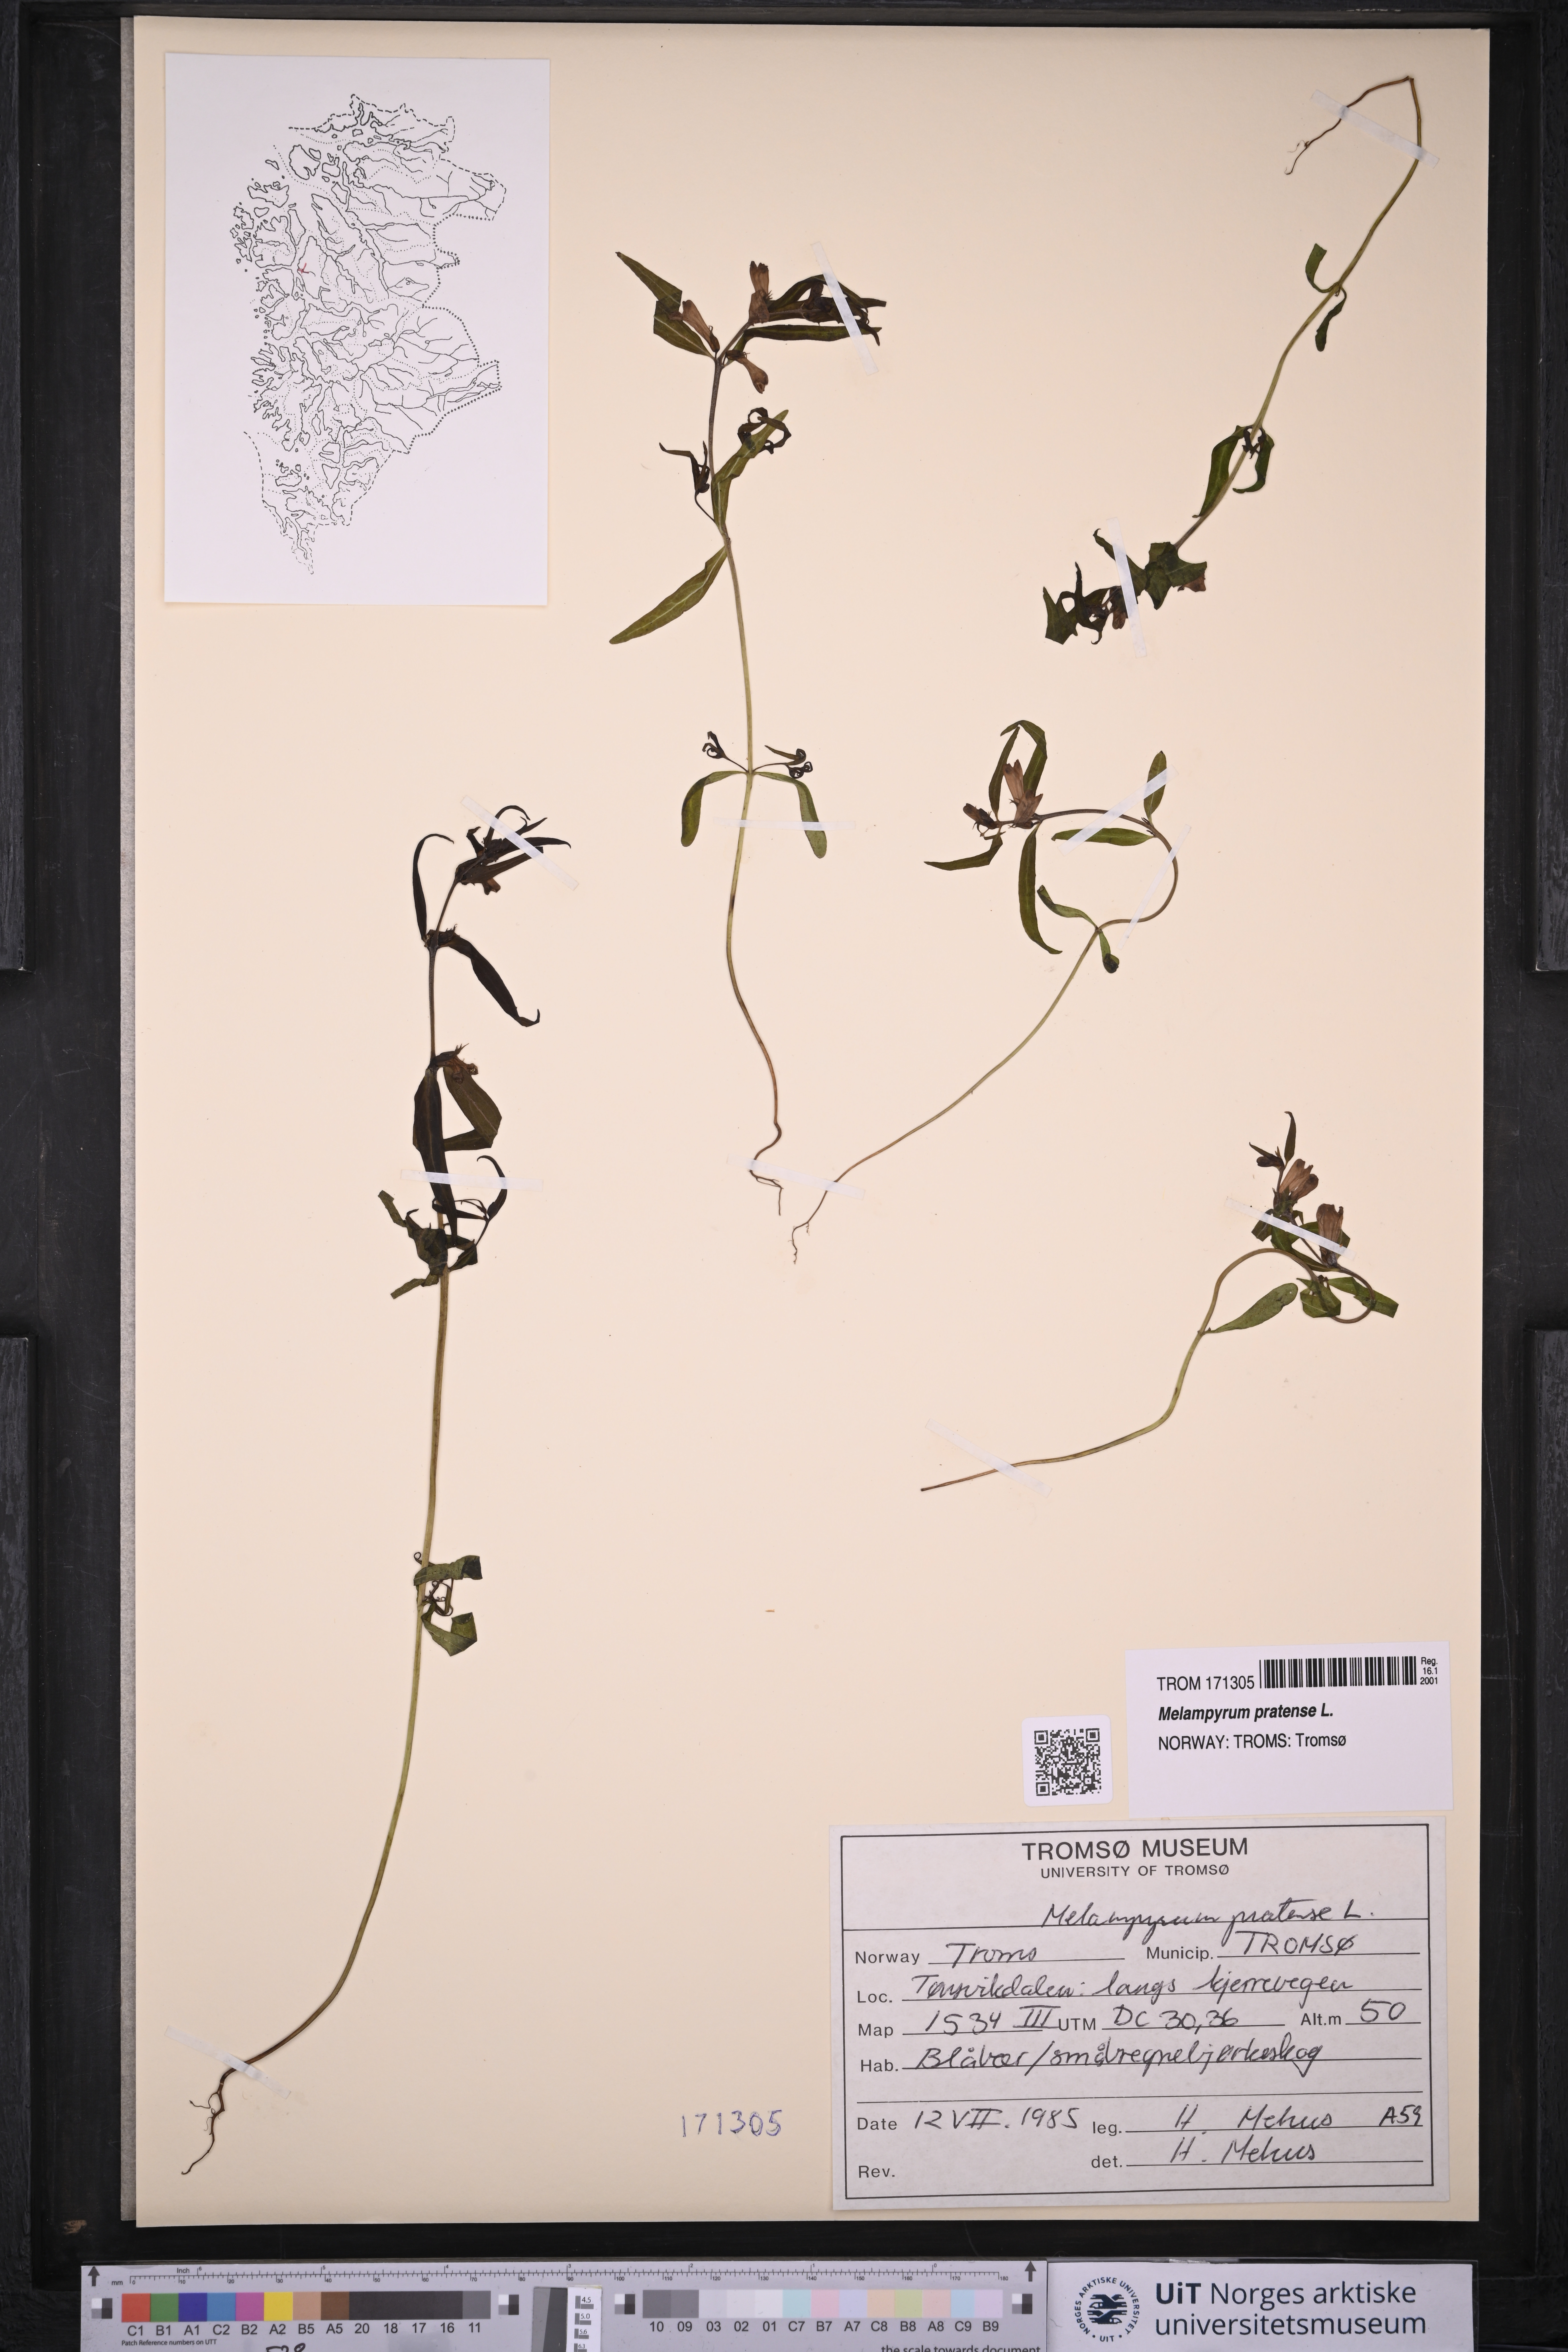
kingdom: Plantae
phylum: Tracheophyta
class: Magnoliopsida
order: Lamiales
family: Orobanchaceae
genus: Melampyrum
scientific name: Melampyrum pratense
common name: Common cow-wheat
